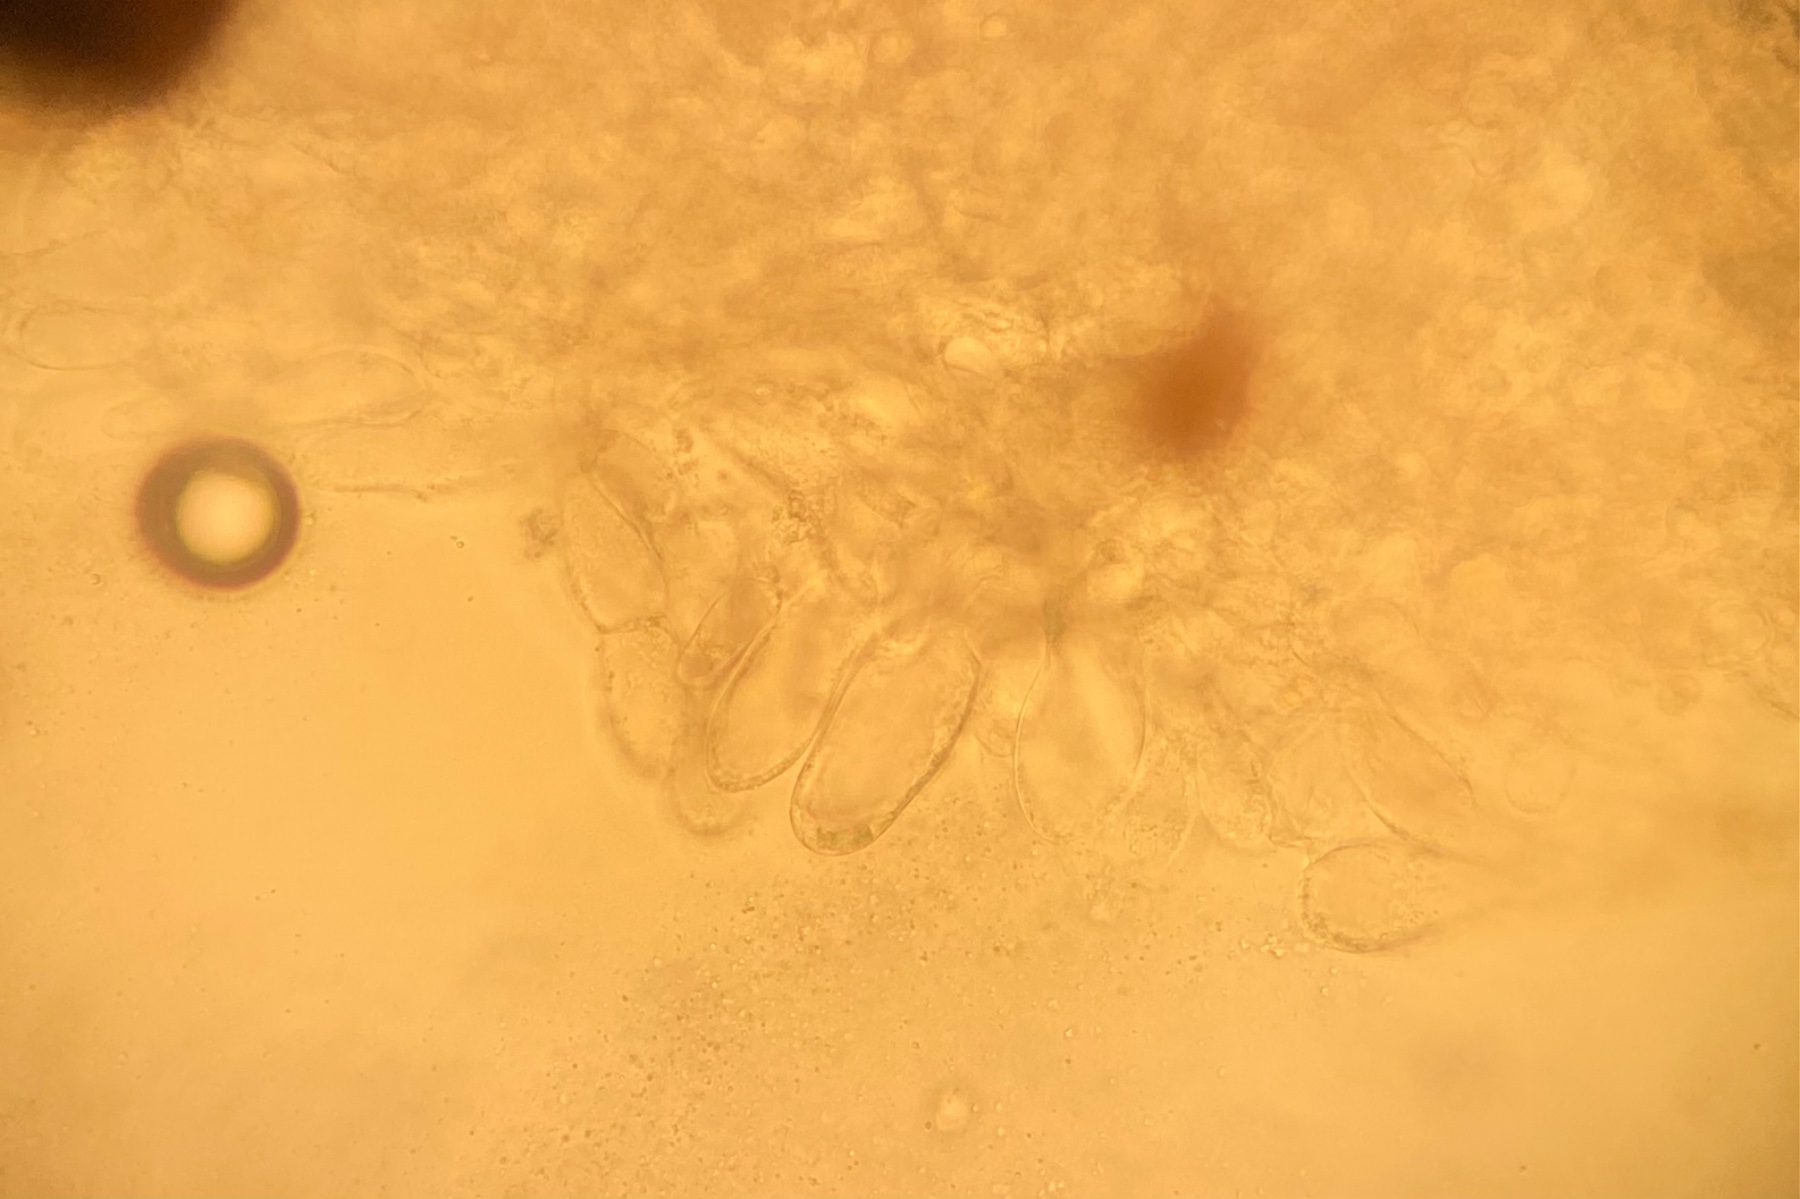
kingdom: Fungi
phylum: Basidiomycota
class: Agaricomycetes
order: Agaricales
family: Entolomataceae
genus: Entoloma
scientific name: Entoloma allospermum
